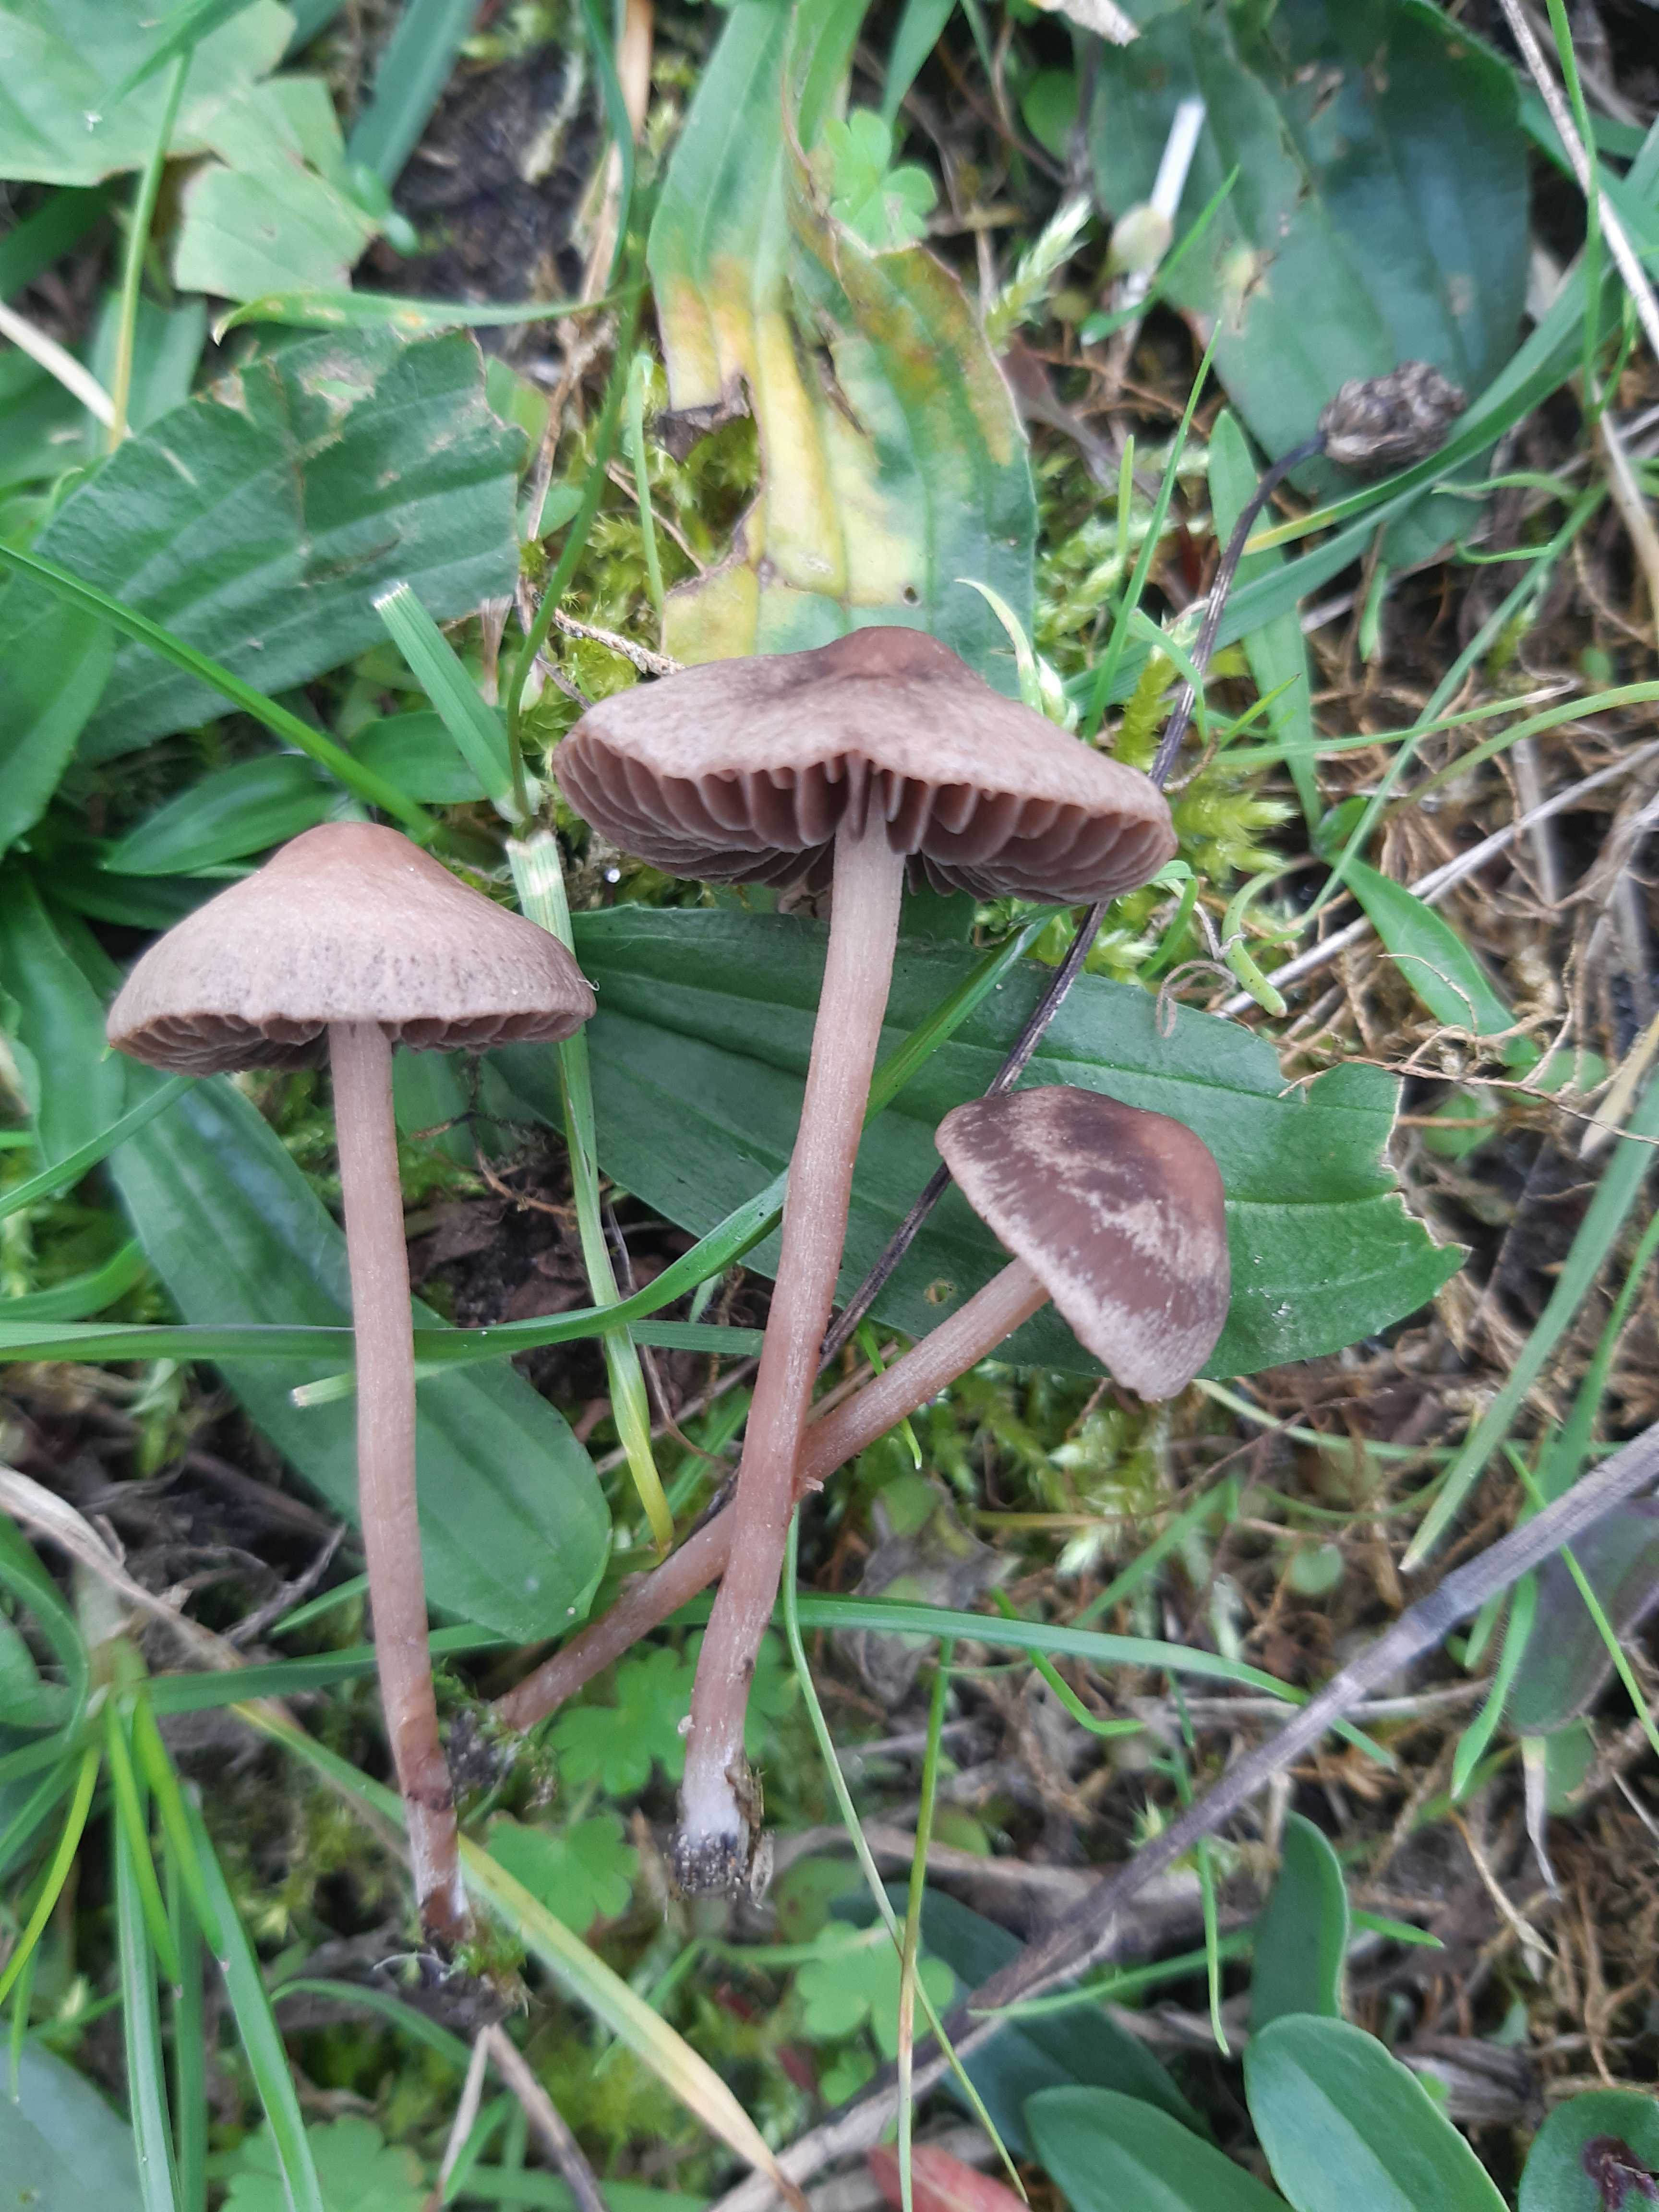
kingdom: Fungi
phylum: Basidiomycota
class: Agaricomycetes
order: Agaricales
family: Bolbitiaceae
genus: Panaeolina
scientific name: Panaeolina foenisecii
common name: høslætsvamp
